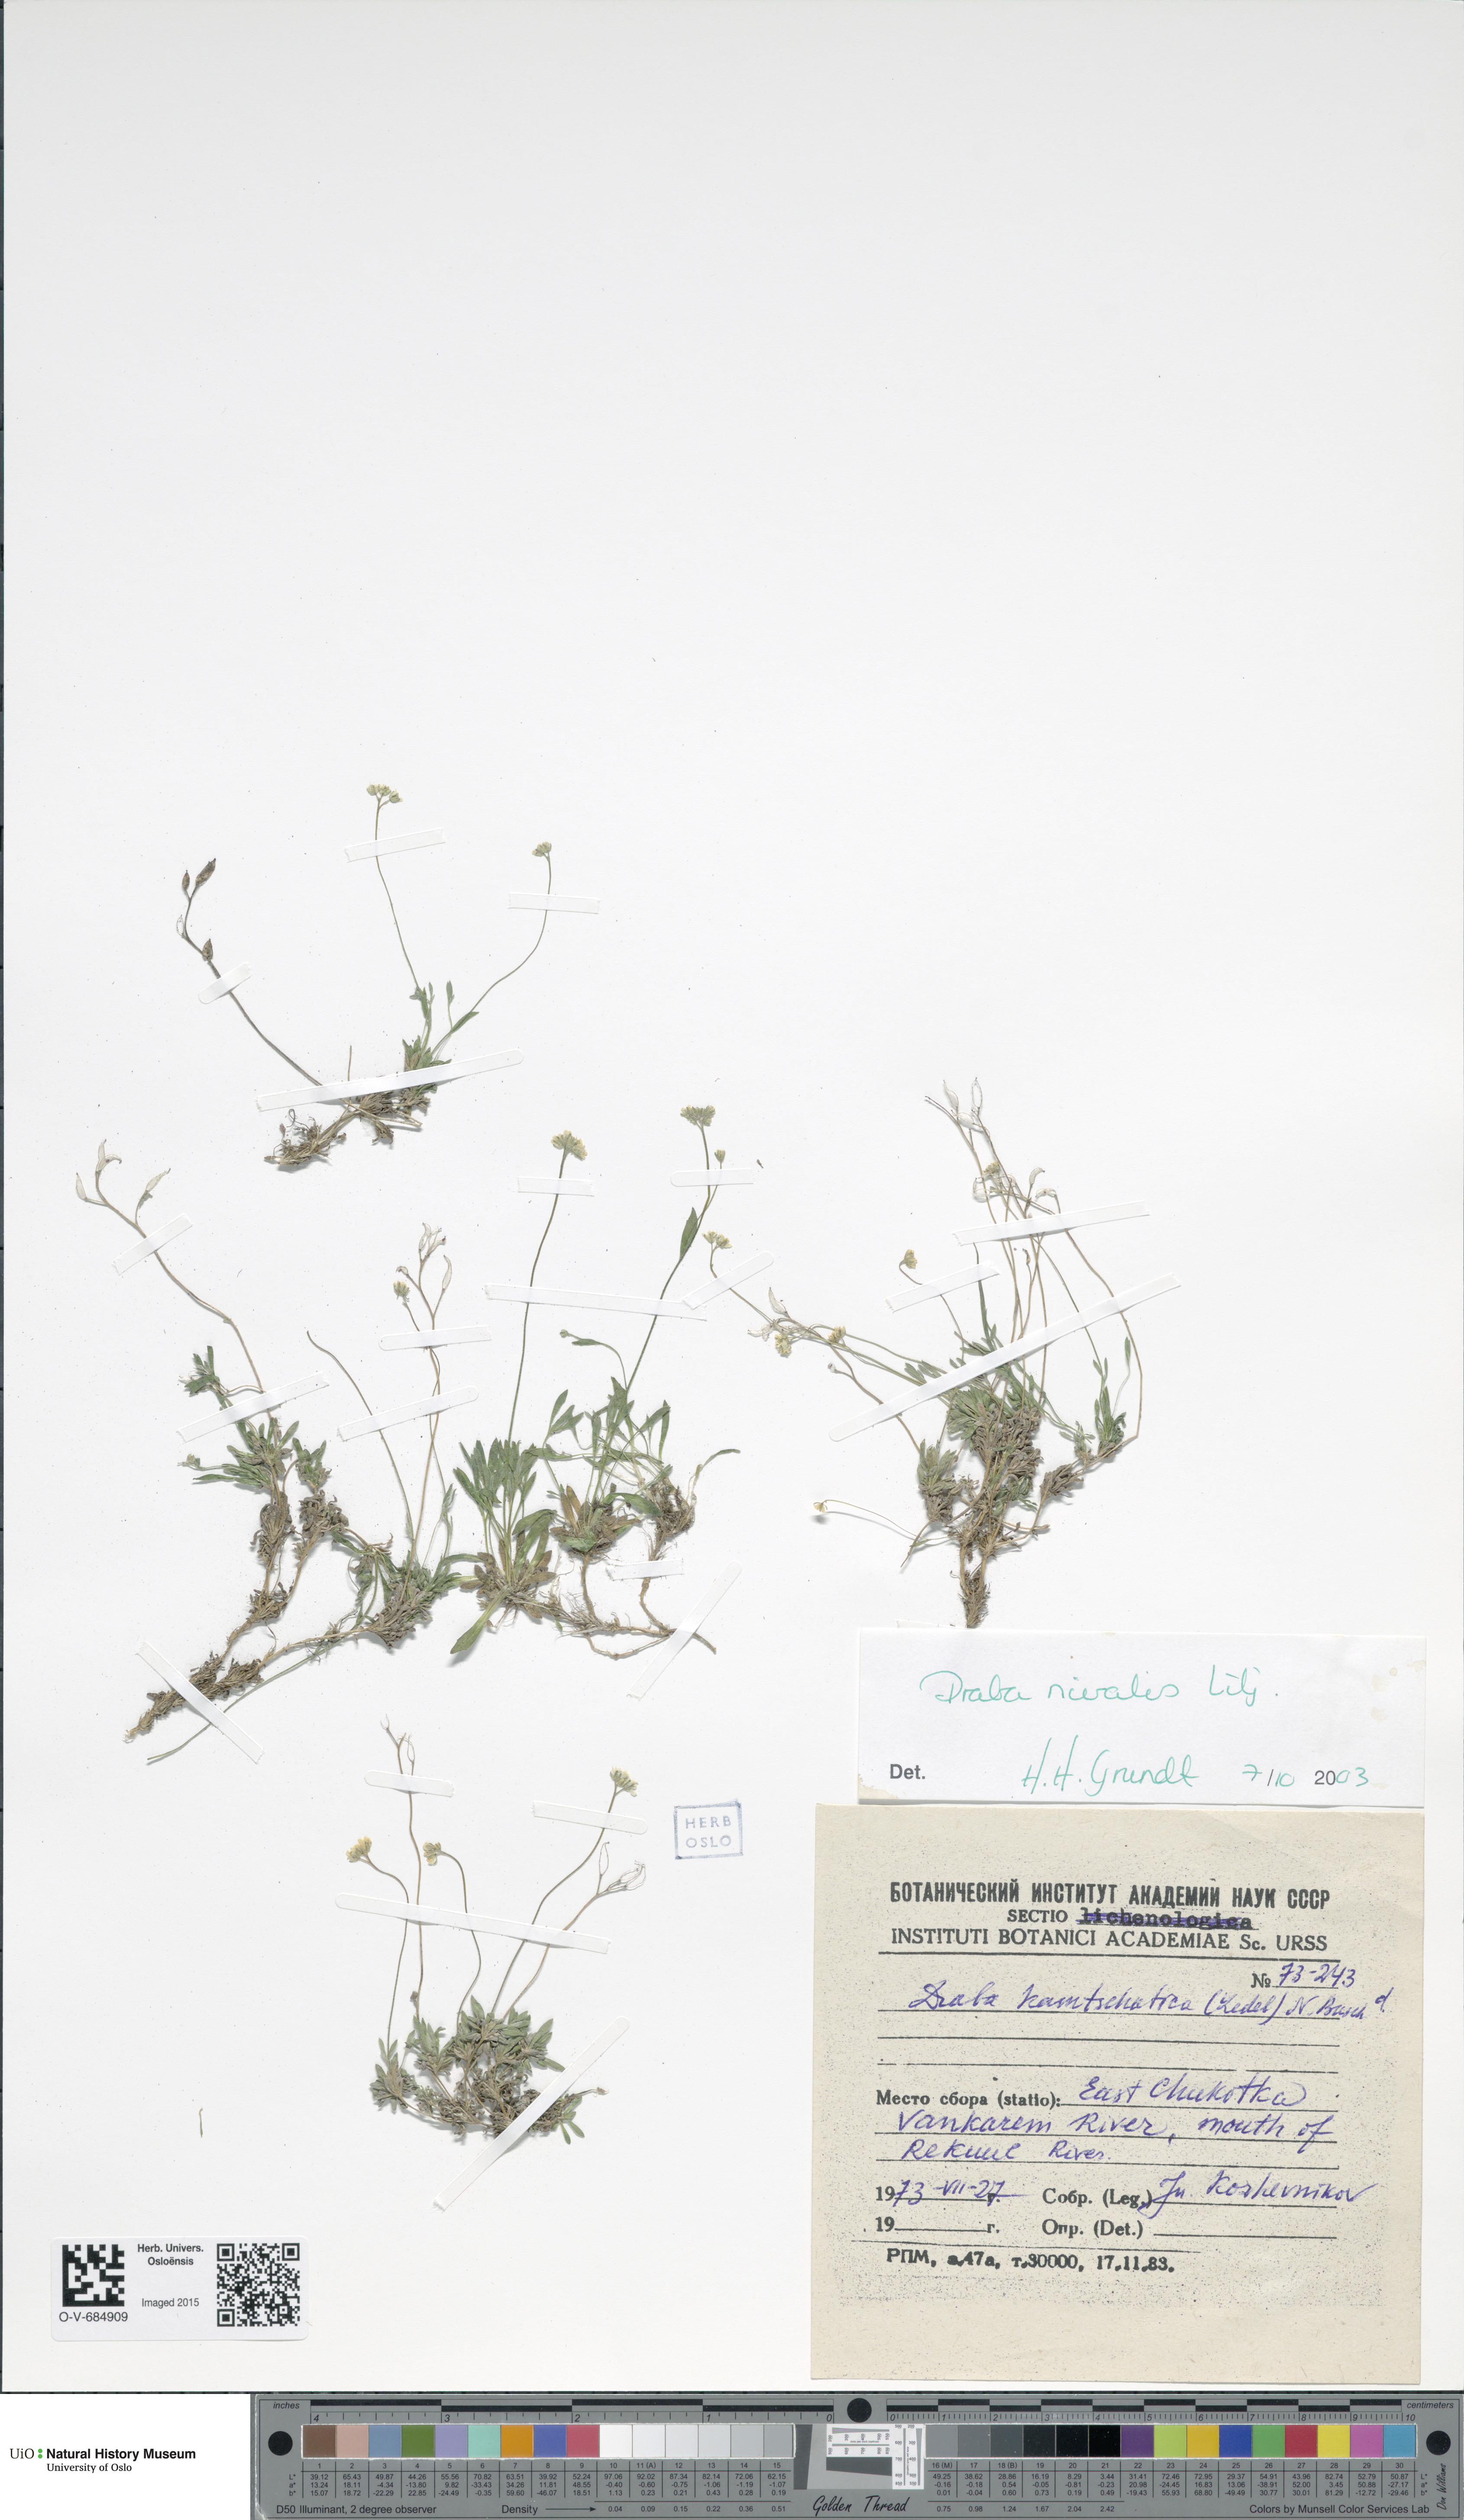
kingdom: Plantae
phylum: Tracheophyta
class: Magnoliopsida
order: Brassicales
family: Brassicaceae
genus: Draba
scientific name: Draba nivalis
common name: Snow draba
